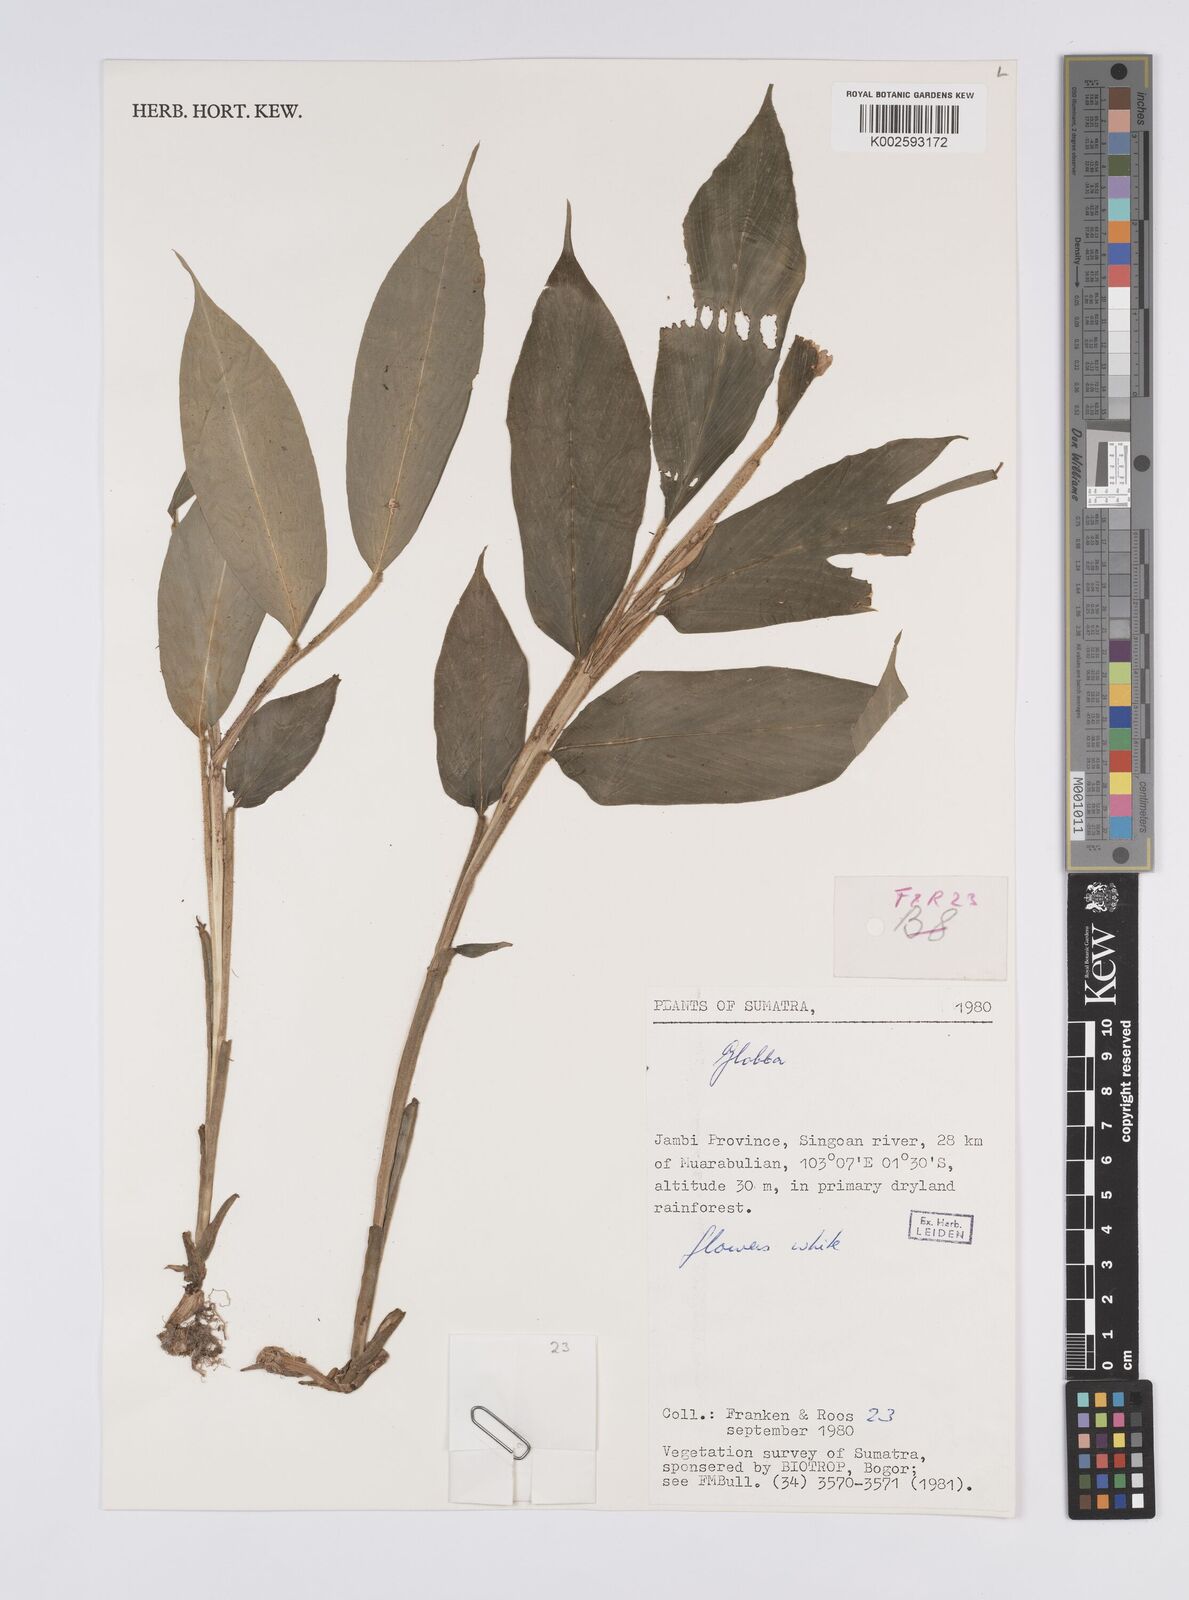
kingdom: Plantae
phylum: Tracheophyta
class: Liliopsida
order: Zingiberales
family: Zingiberaceae
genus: Globba
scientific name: Globba
